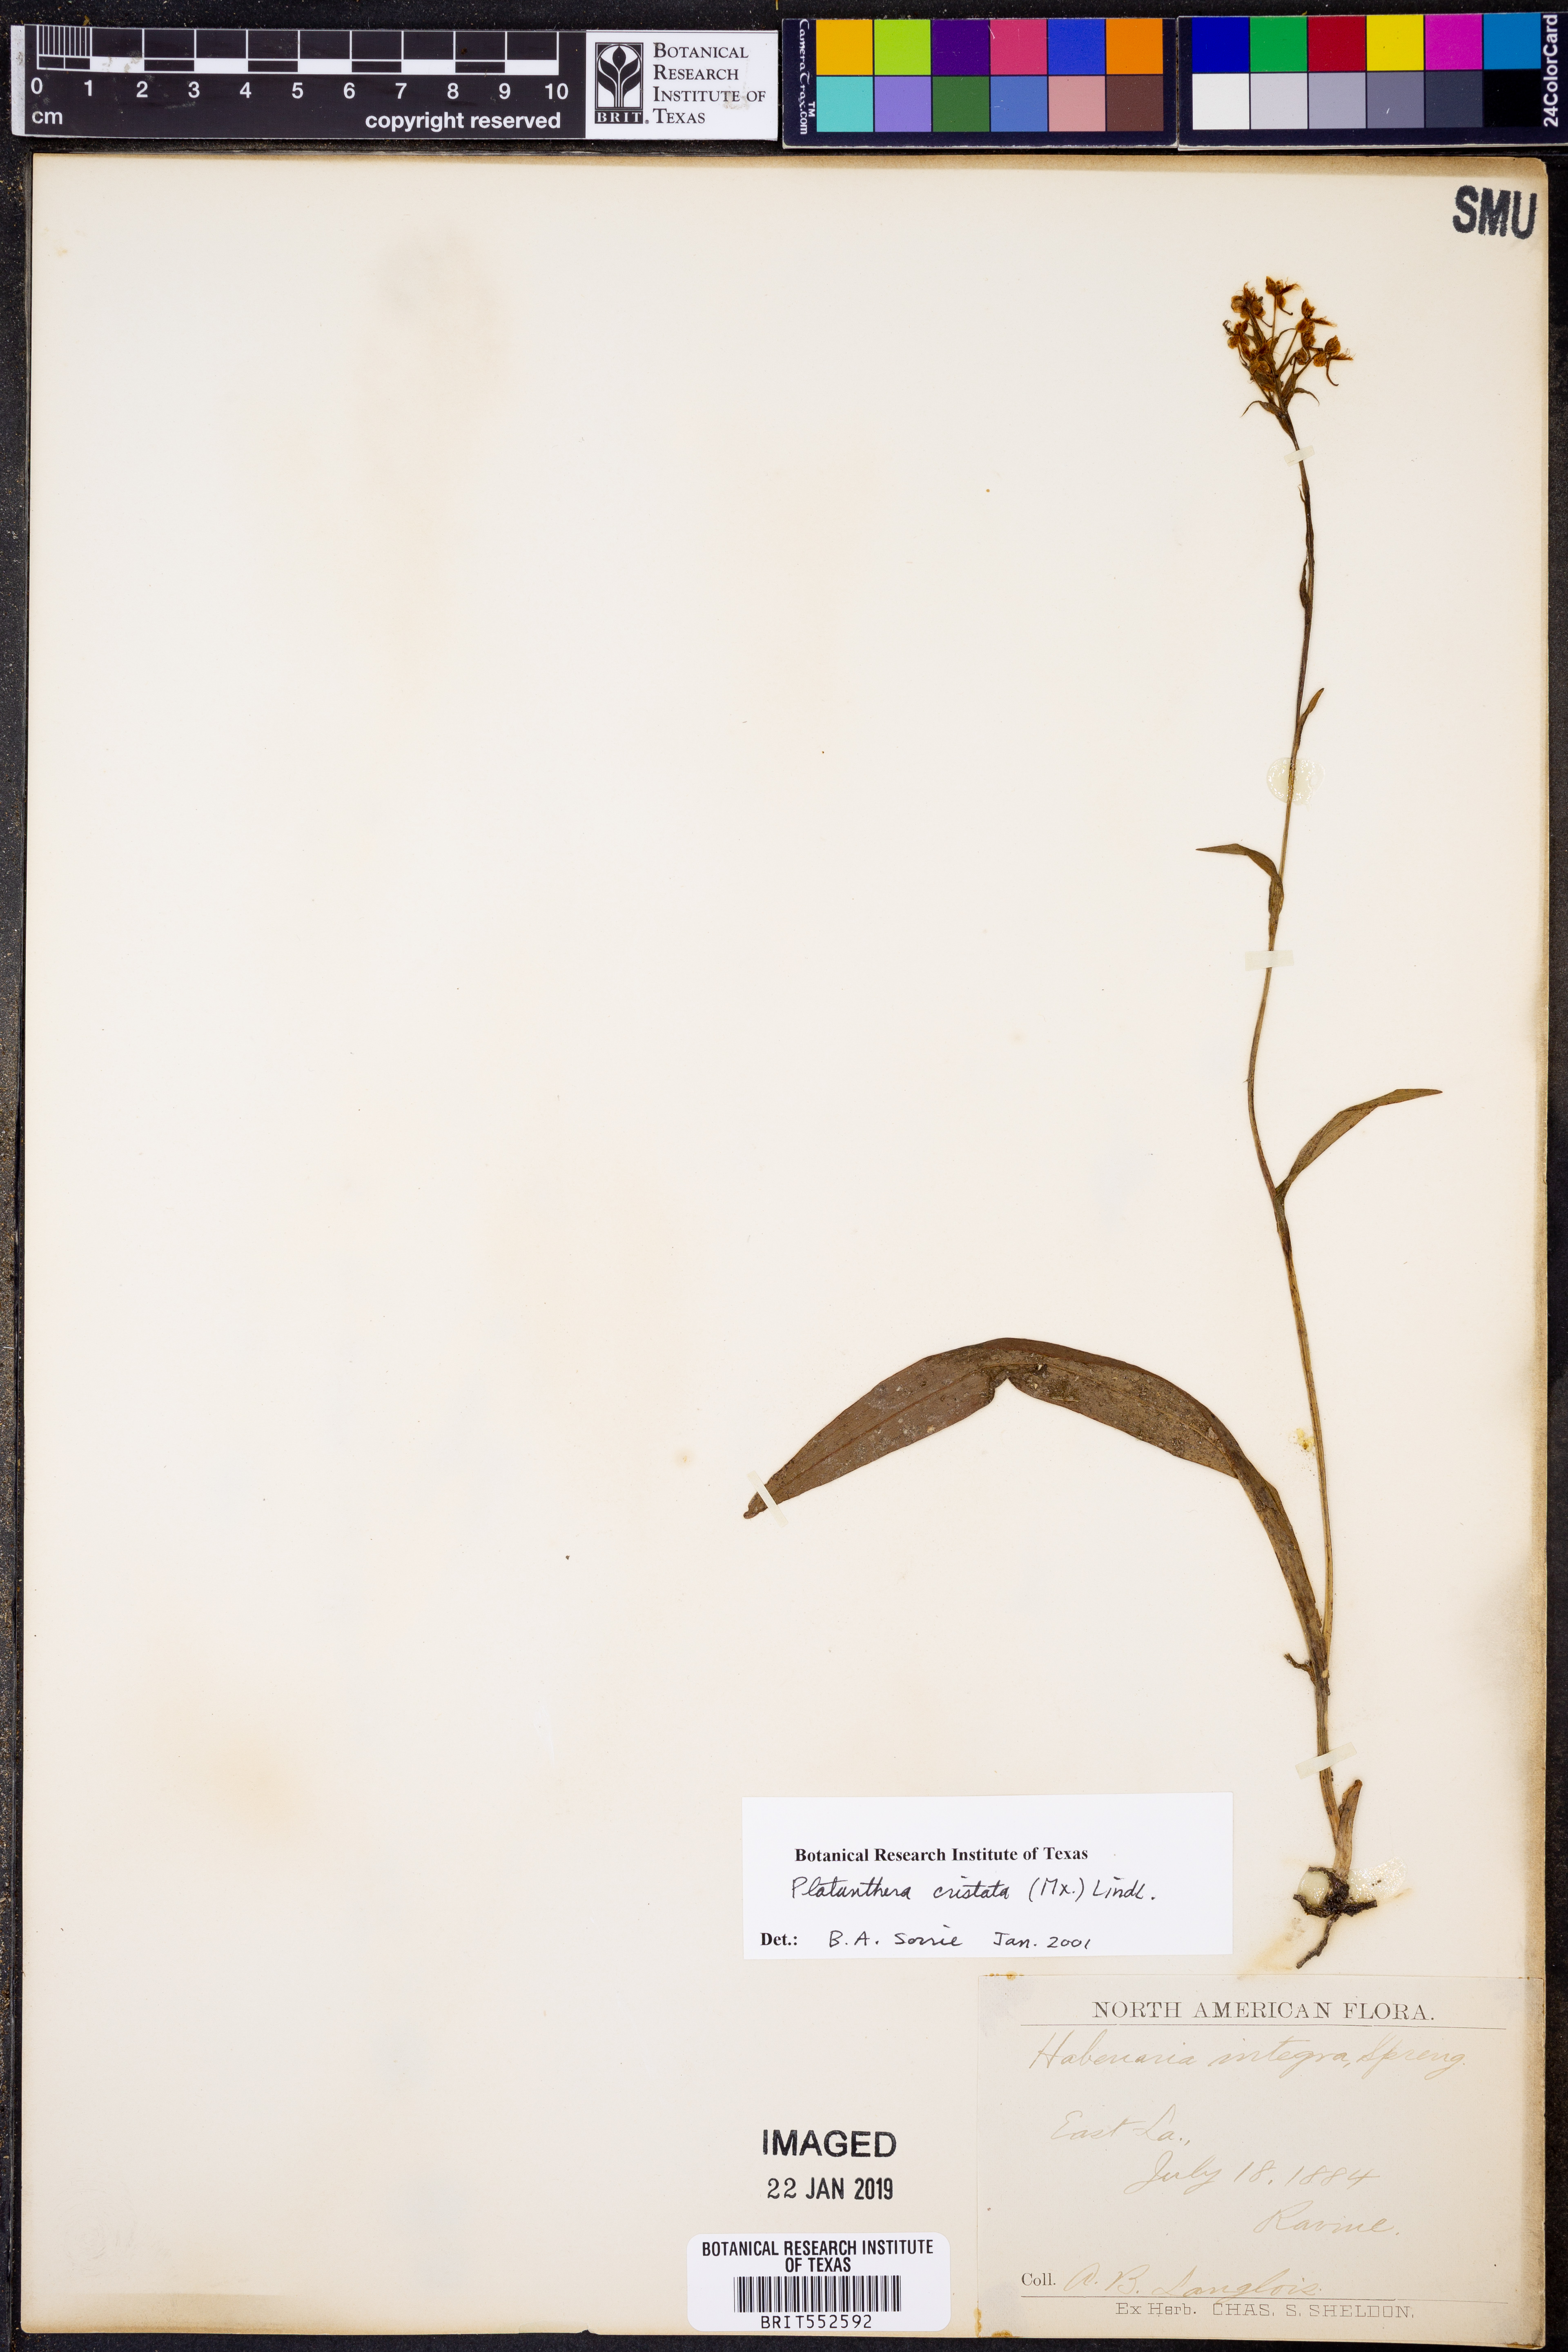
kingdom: Plantae
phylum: Tracheophyta
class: Liliopsida
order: Asparagales
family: Orchidaceae
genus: Platanthera
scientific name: Platanthera cristata
